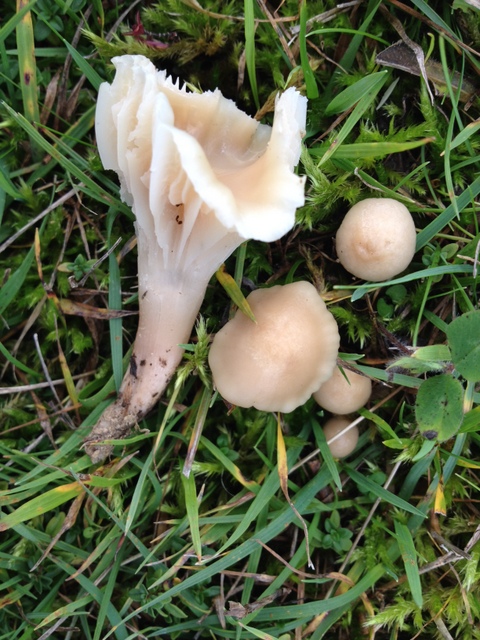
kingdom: Fungi
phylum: Basidiomycota
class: Agaricomycetes
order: Agaricales
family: Hygrophoraceae
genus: Cuphophyllus
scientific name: Cuphophyllus virgineus
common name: isabella-vokshat
